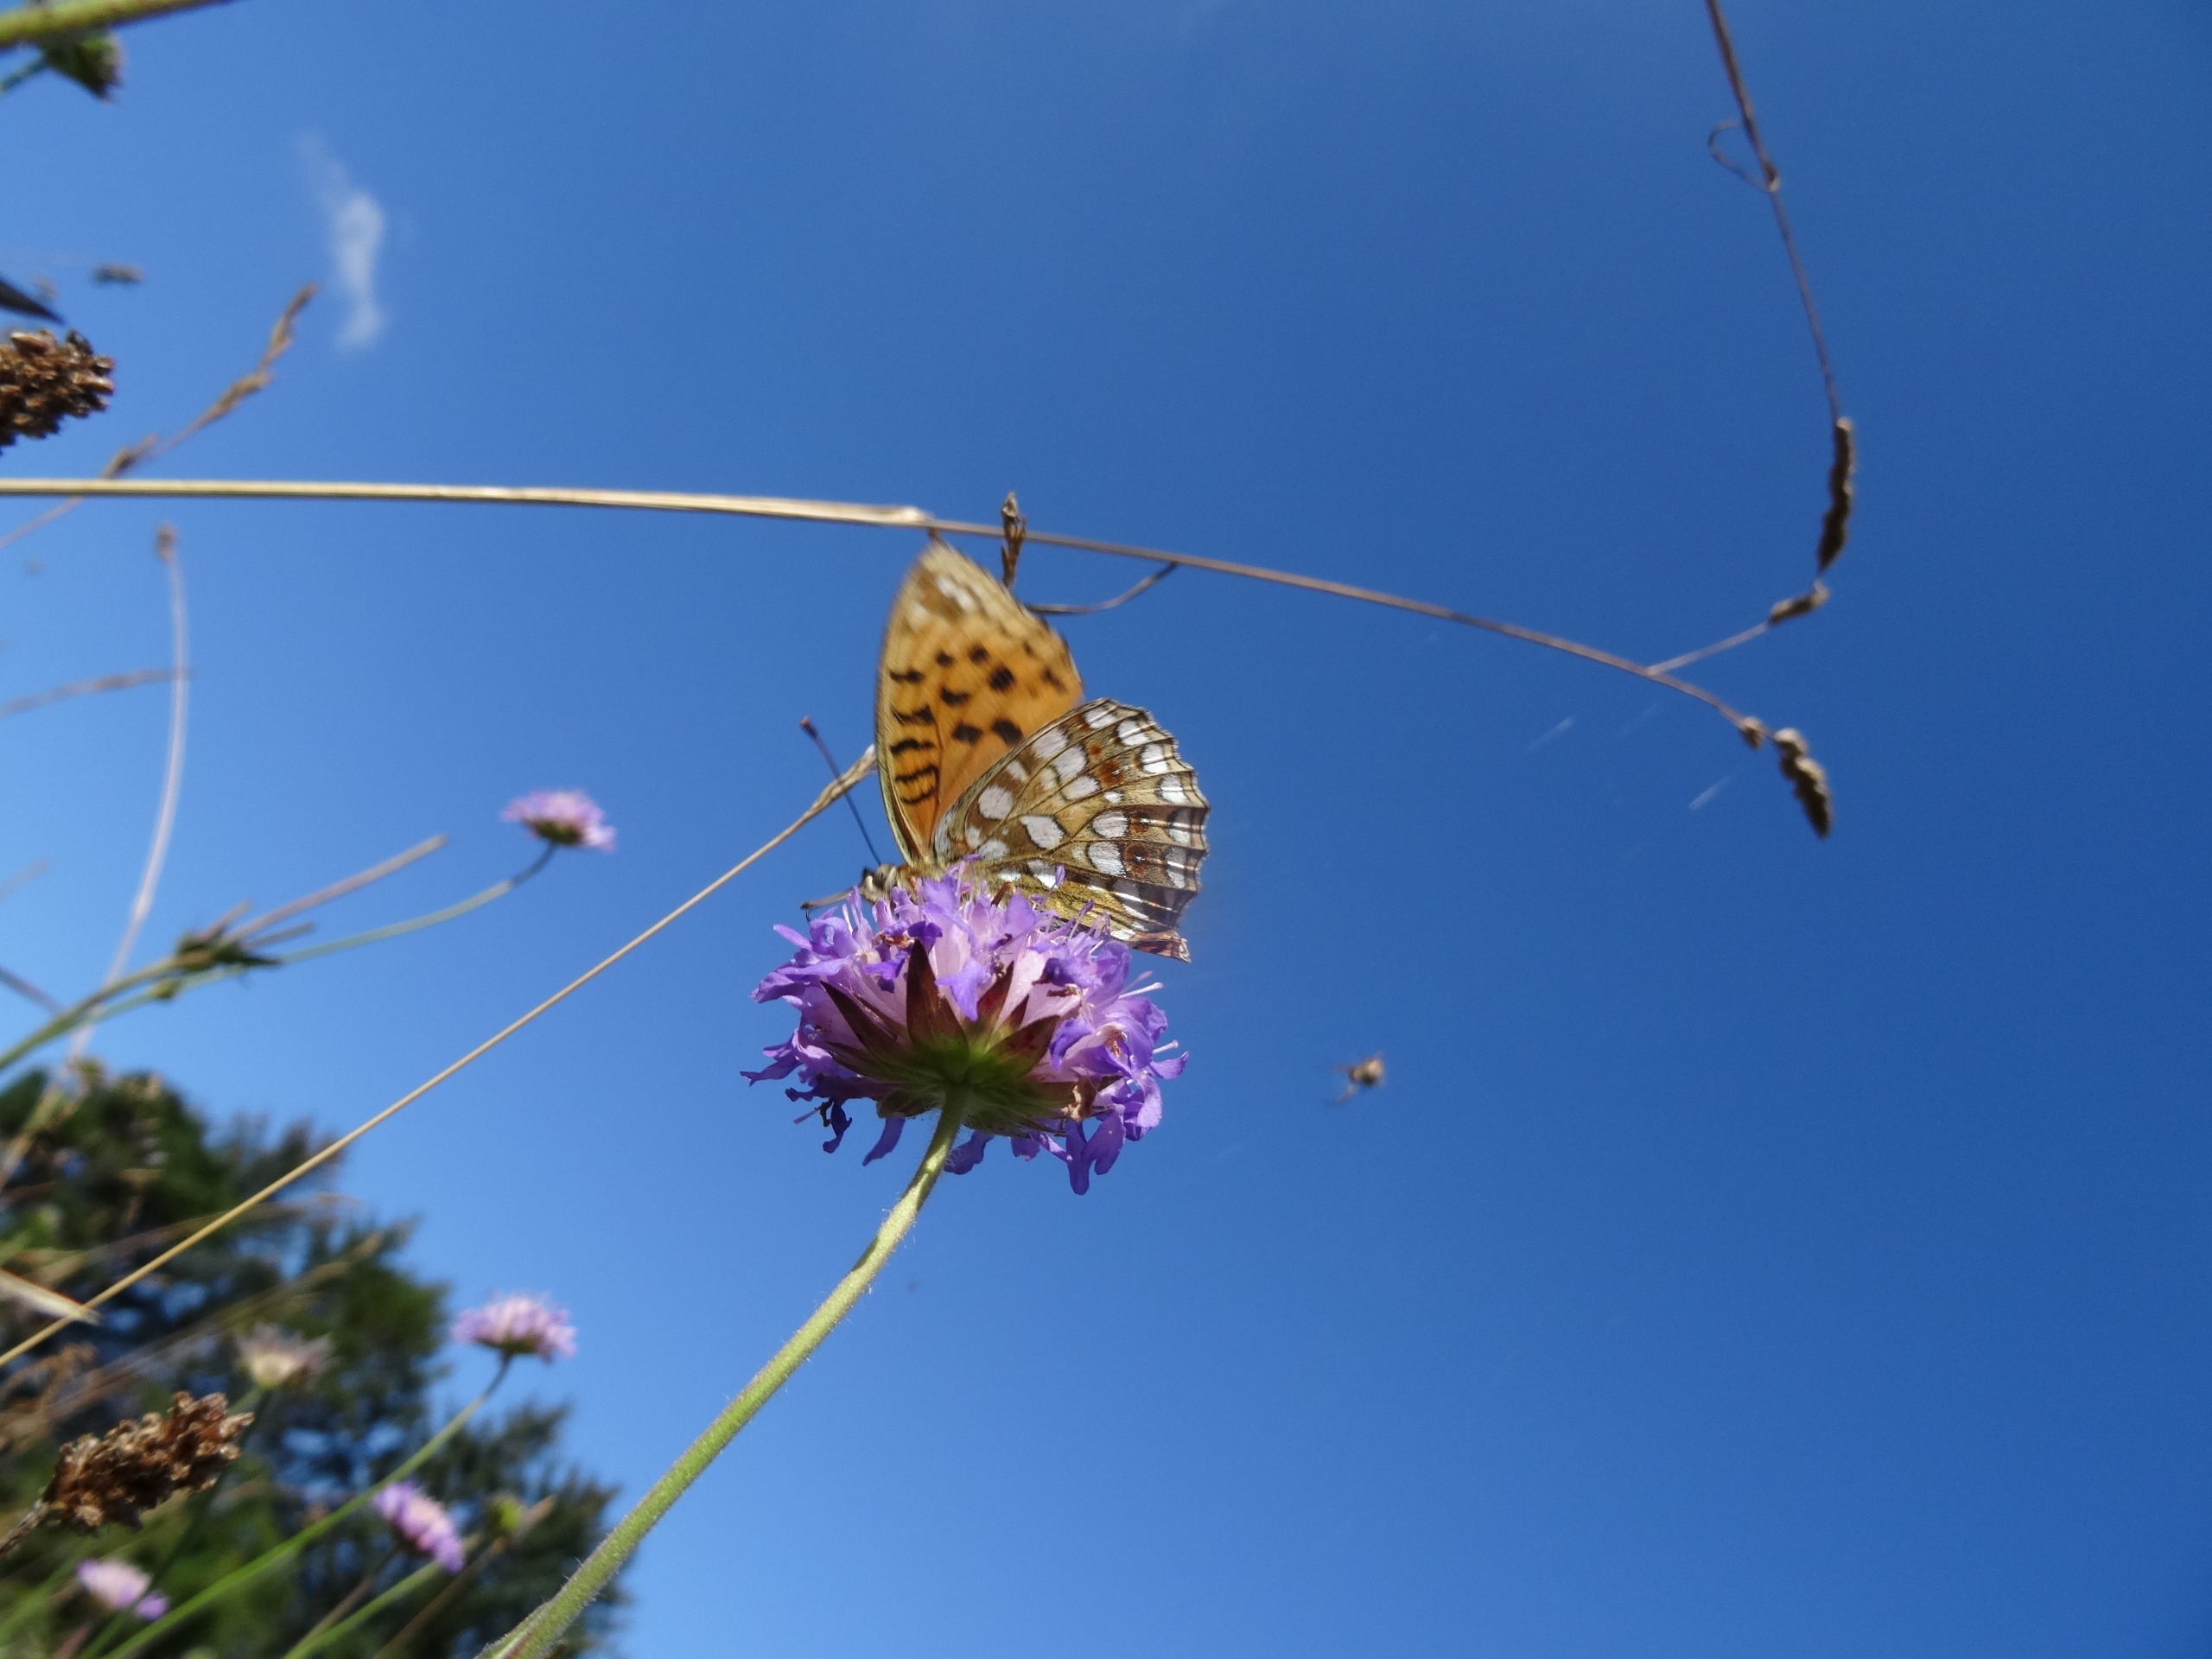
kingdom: Animalia
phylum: Arthropoda
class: Insecta
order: Lepidoptera
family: Nymphalidae
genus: Fabriciana
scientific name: Fabriciana adippe
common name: Skovperlemorsommerfugl
